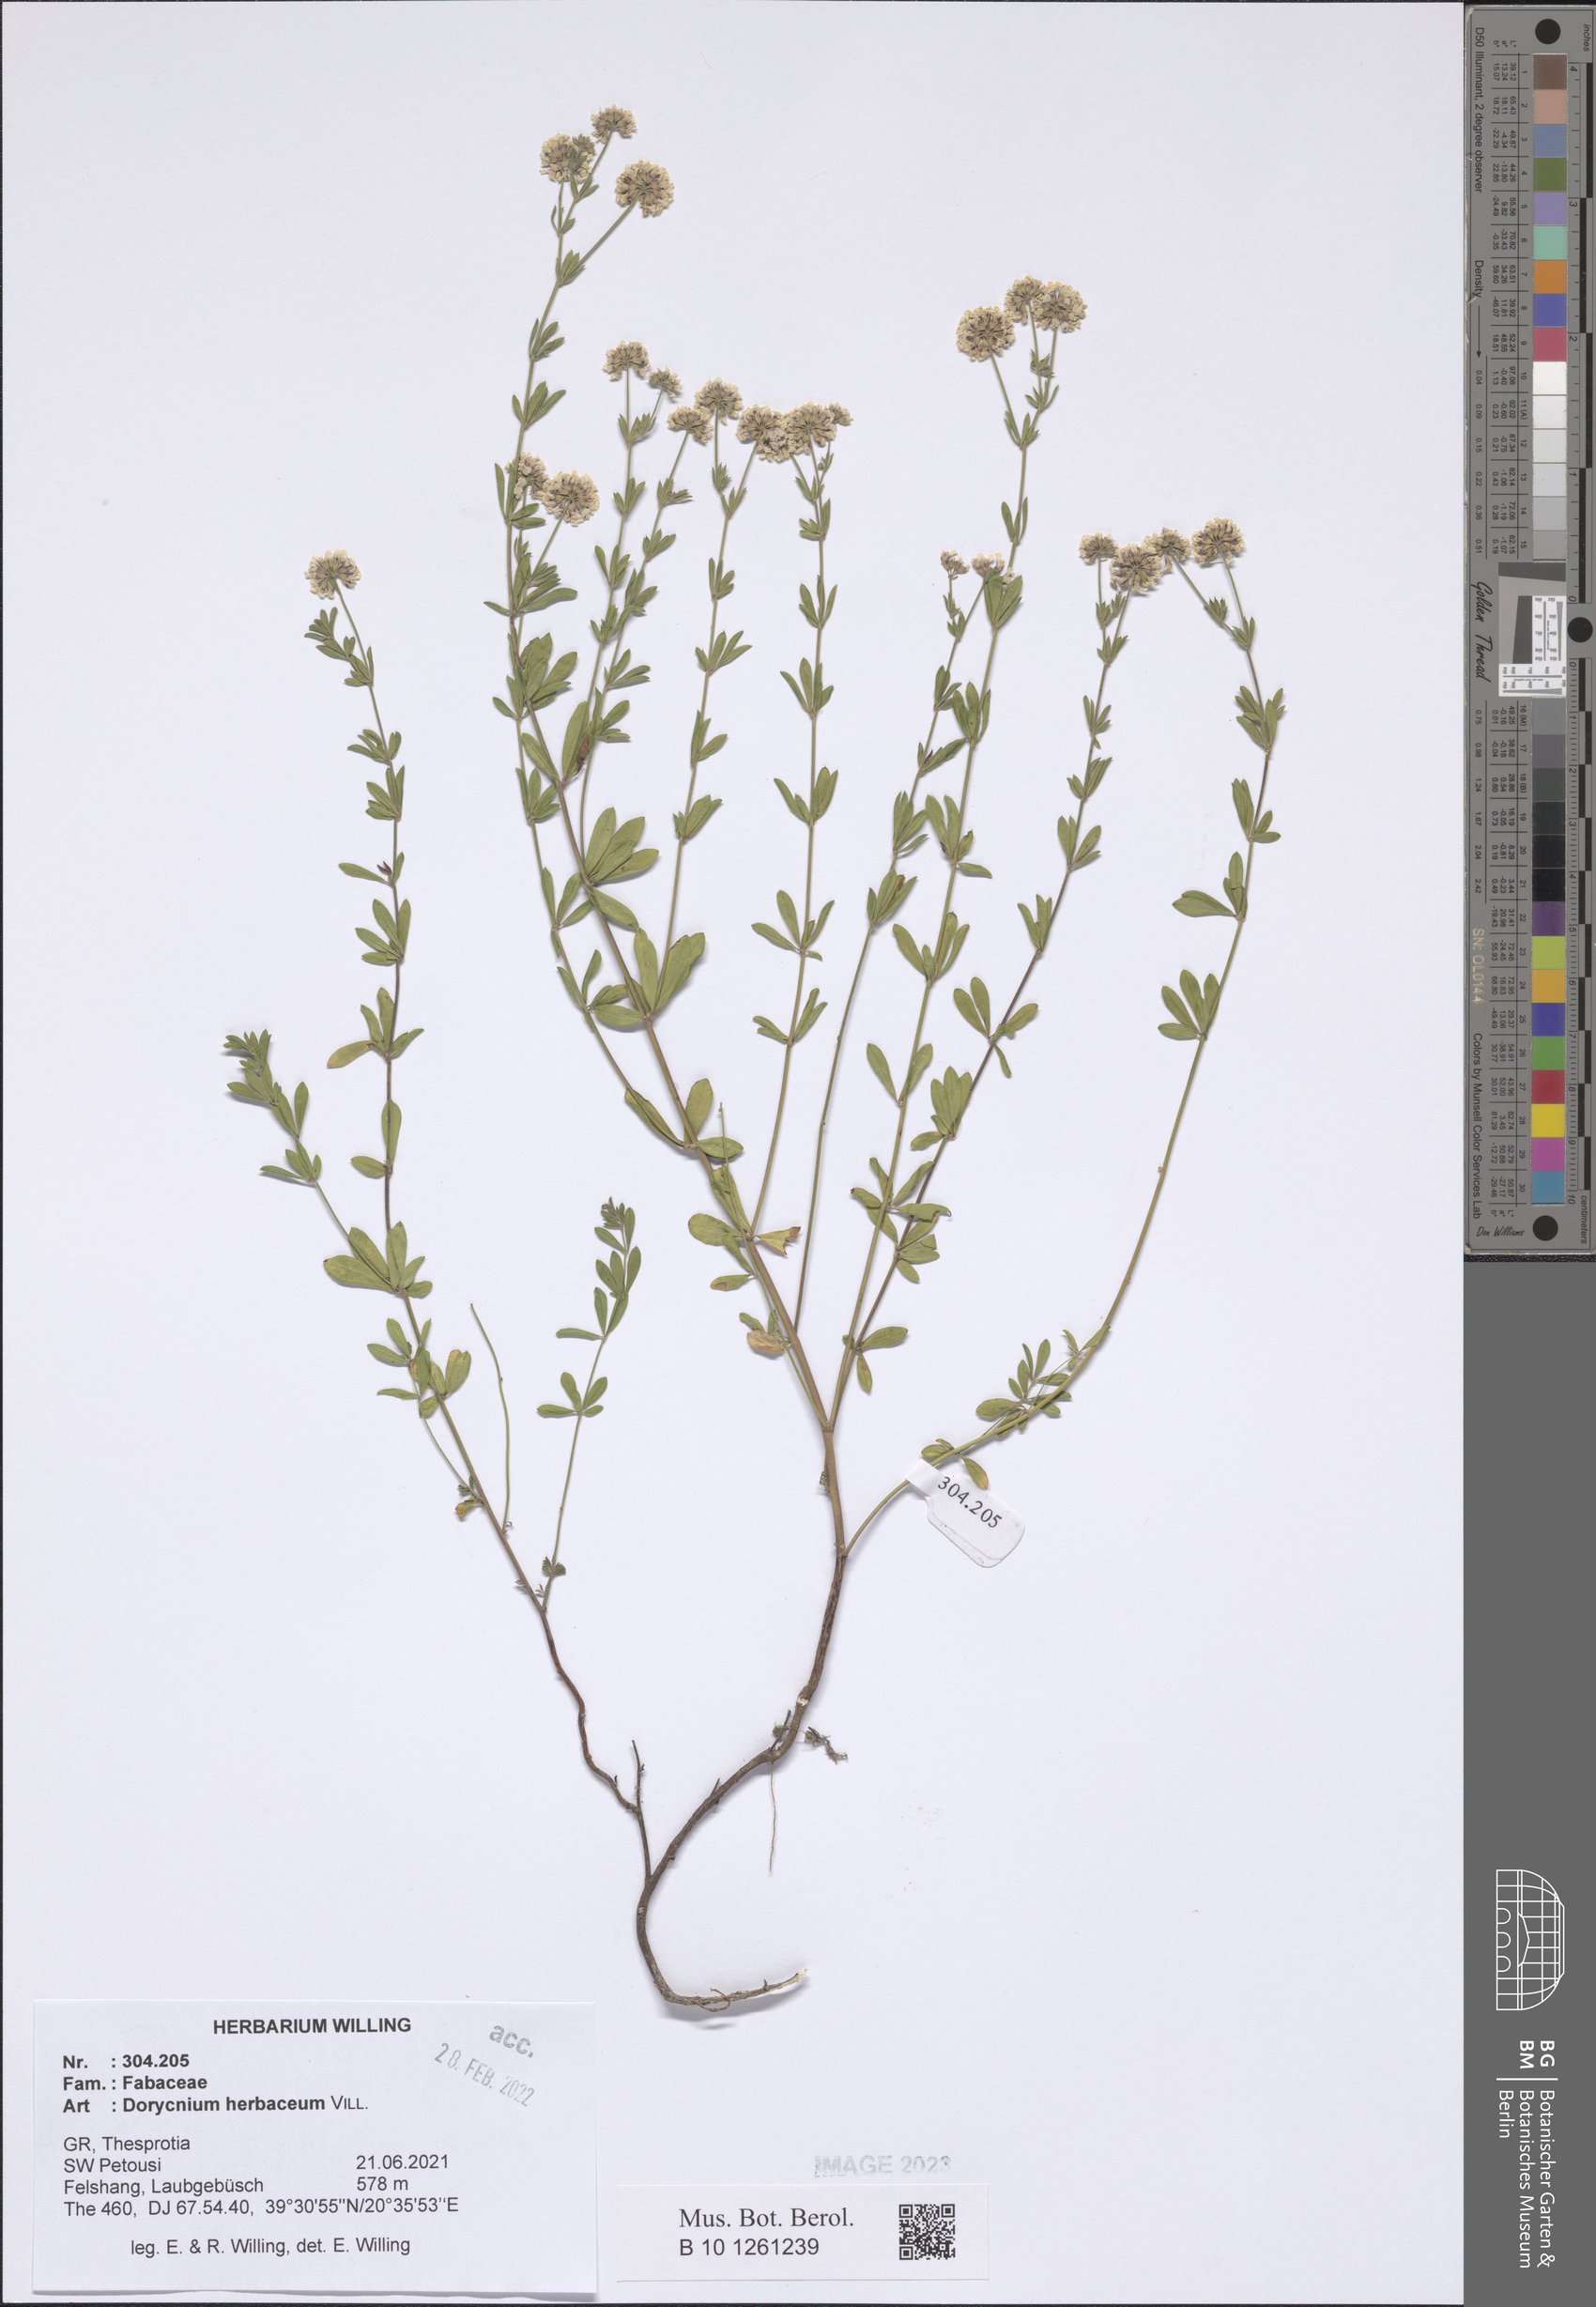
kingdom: Plantae
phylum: Tracheophyta
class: Magnoliopsida
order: Fabales
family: Fabaceae
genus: Lotus
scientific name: Lotus herbaceus
